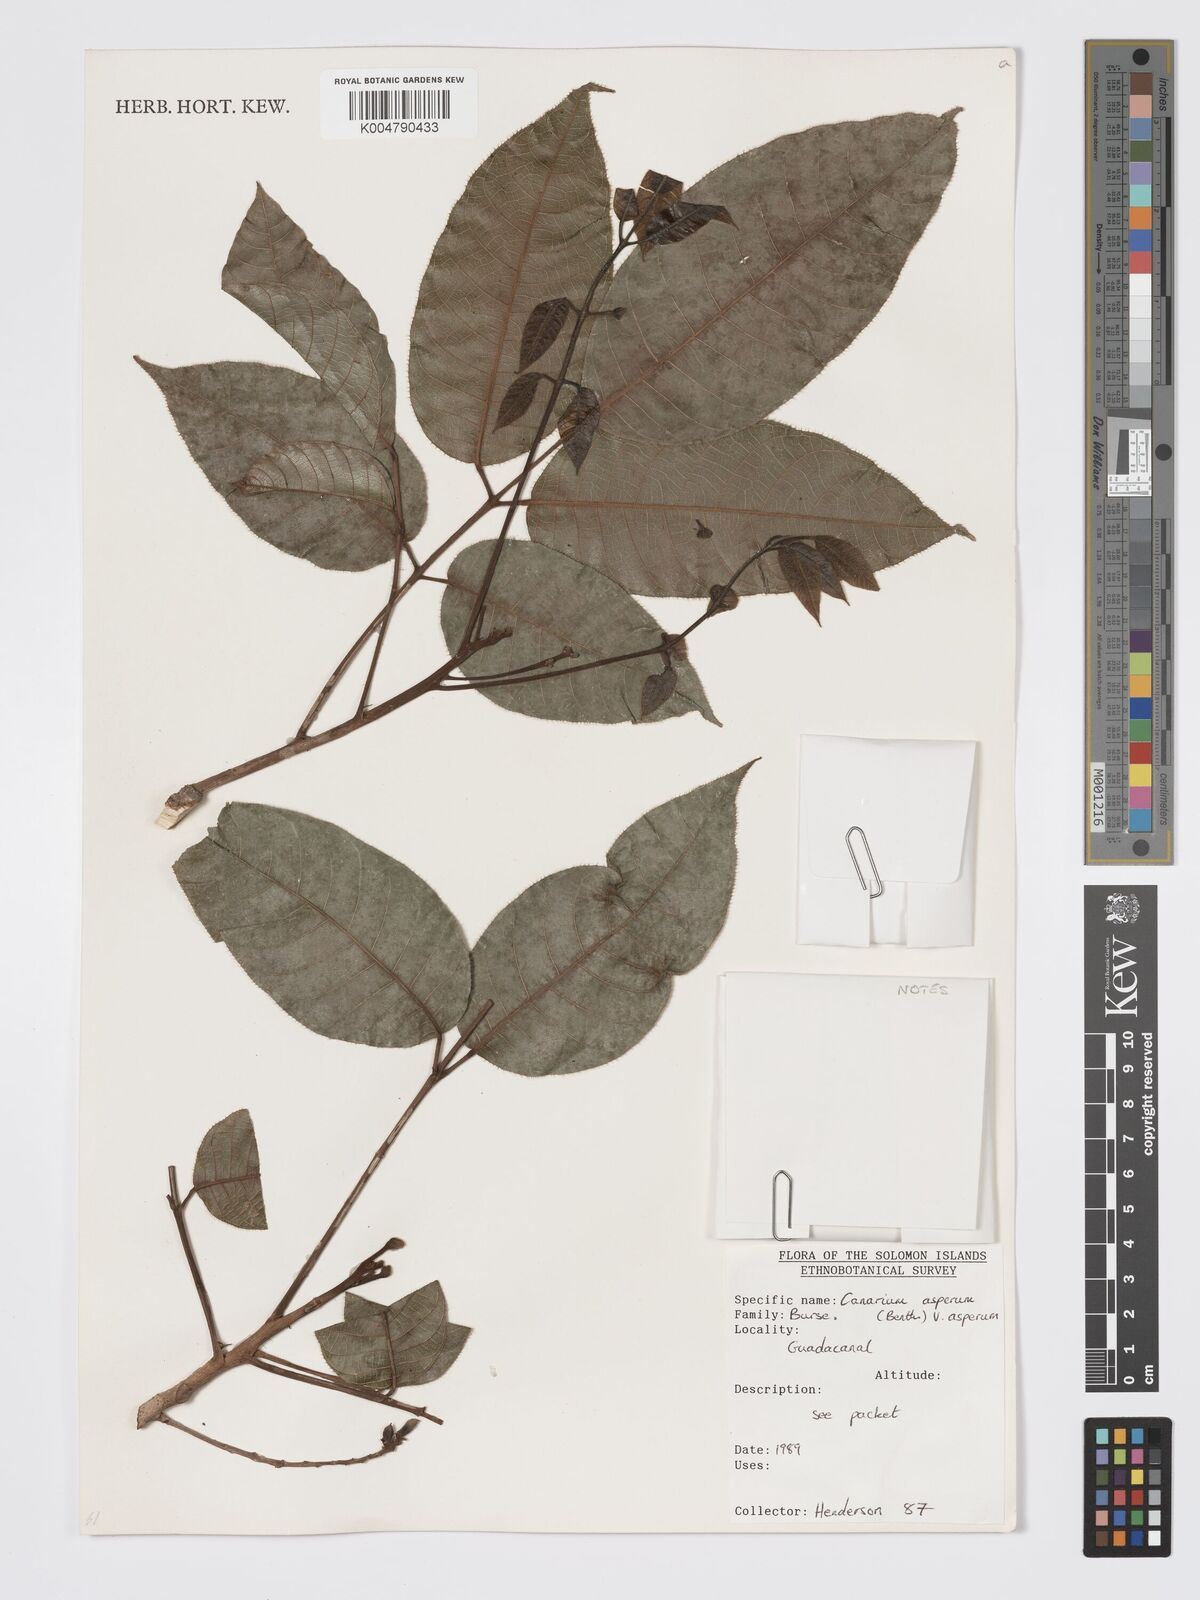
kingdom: Plantae
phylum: Tracheophyta
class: Magnoliopsida
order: Sapindales
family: Burseraceae
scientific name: Burseraceae
